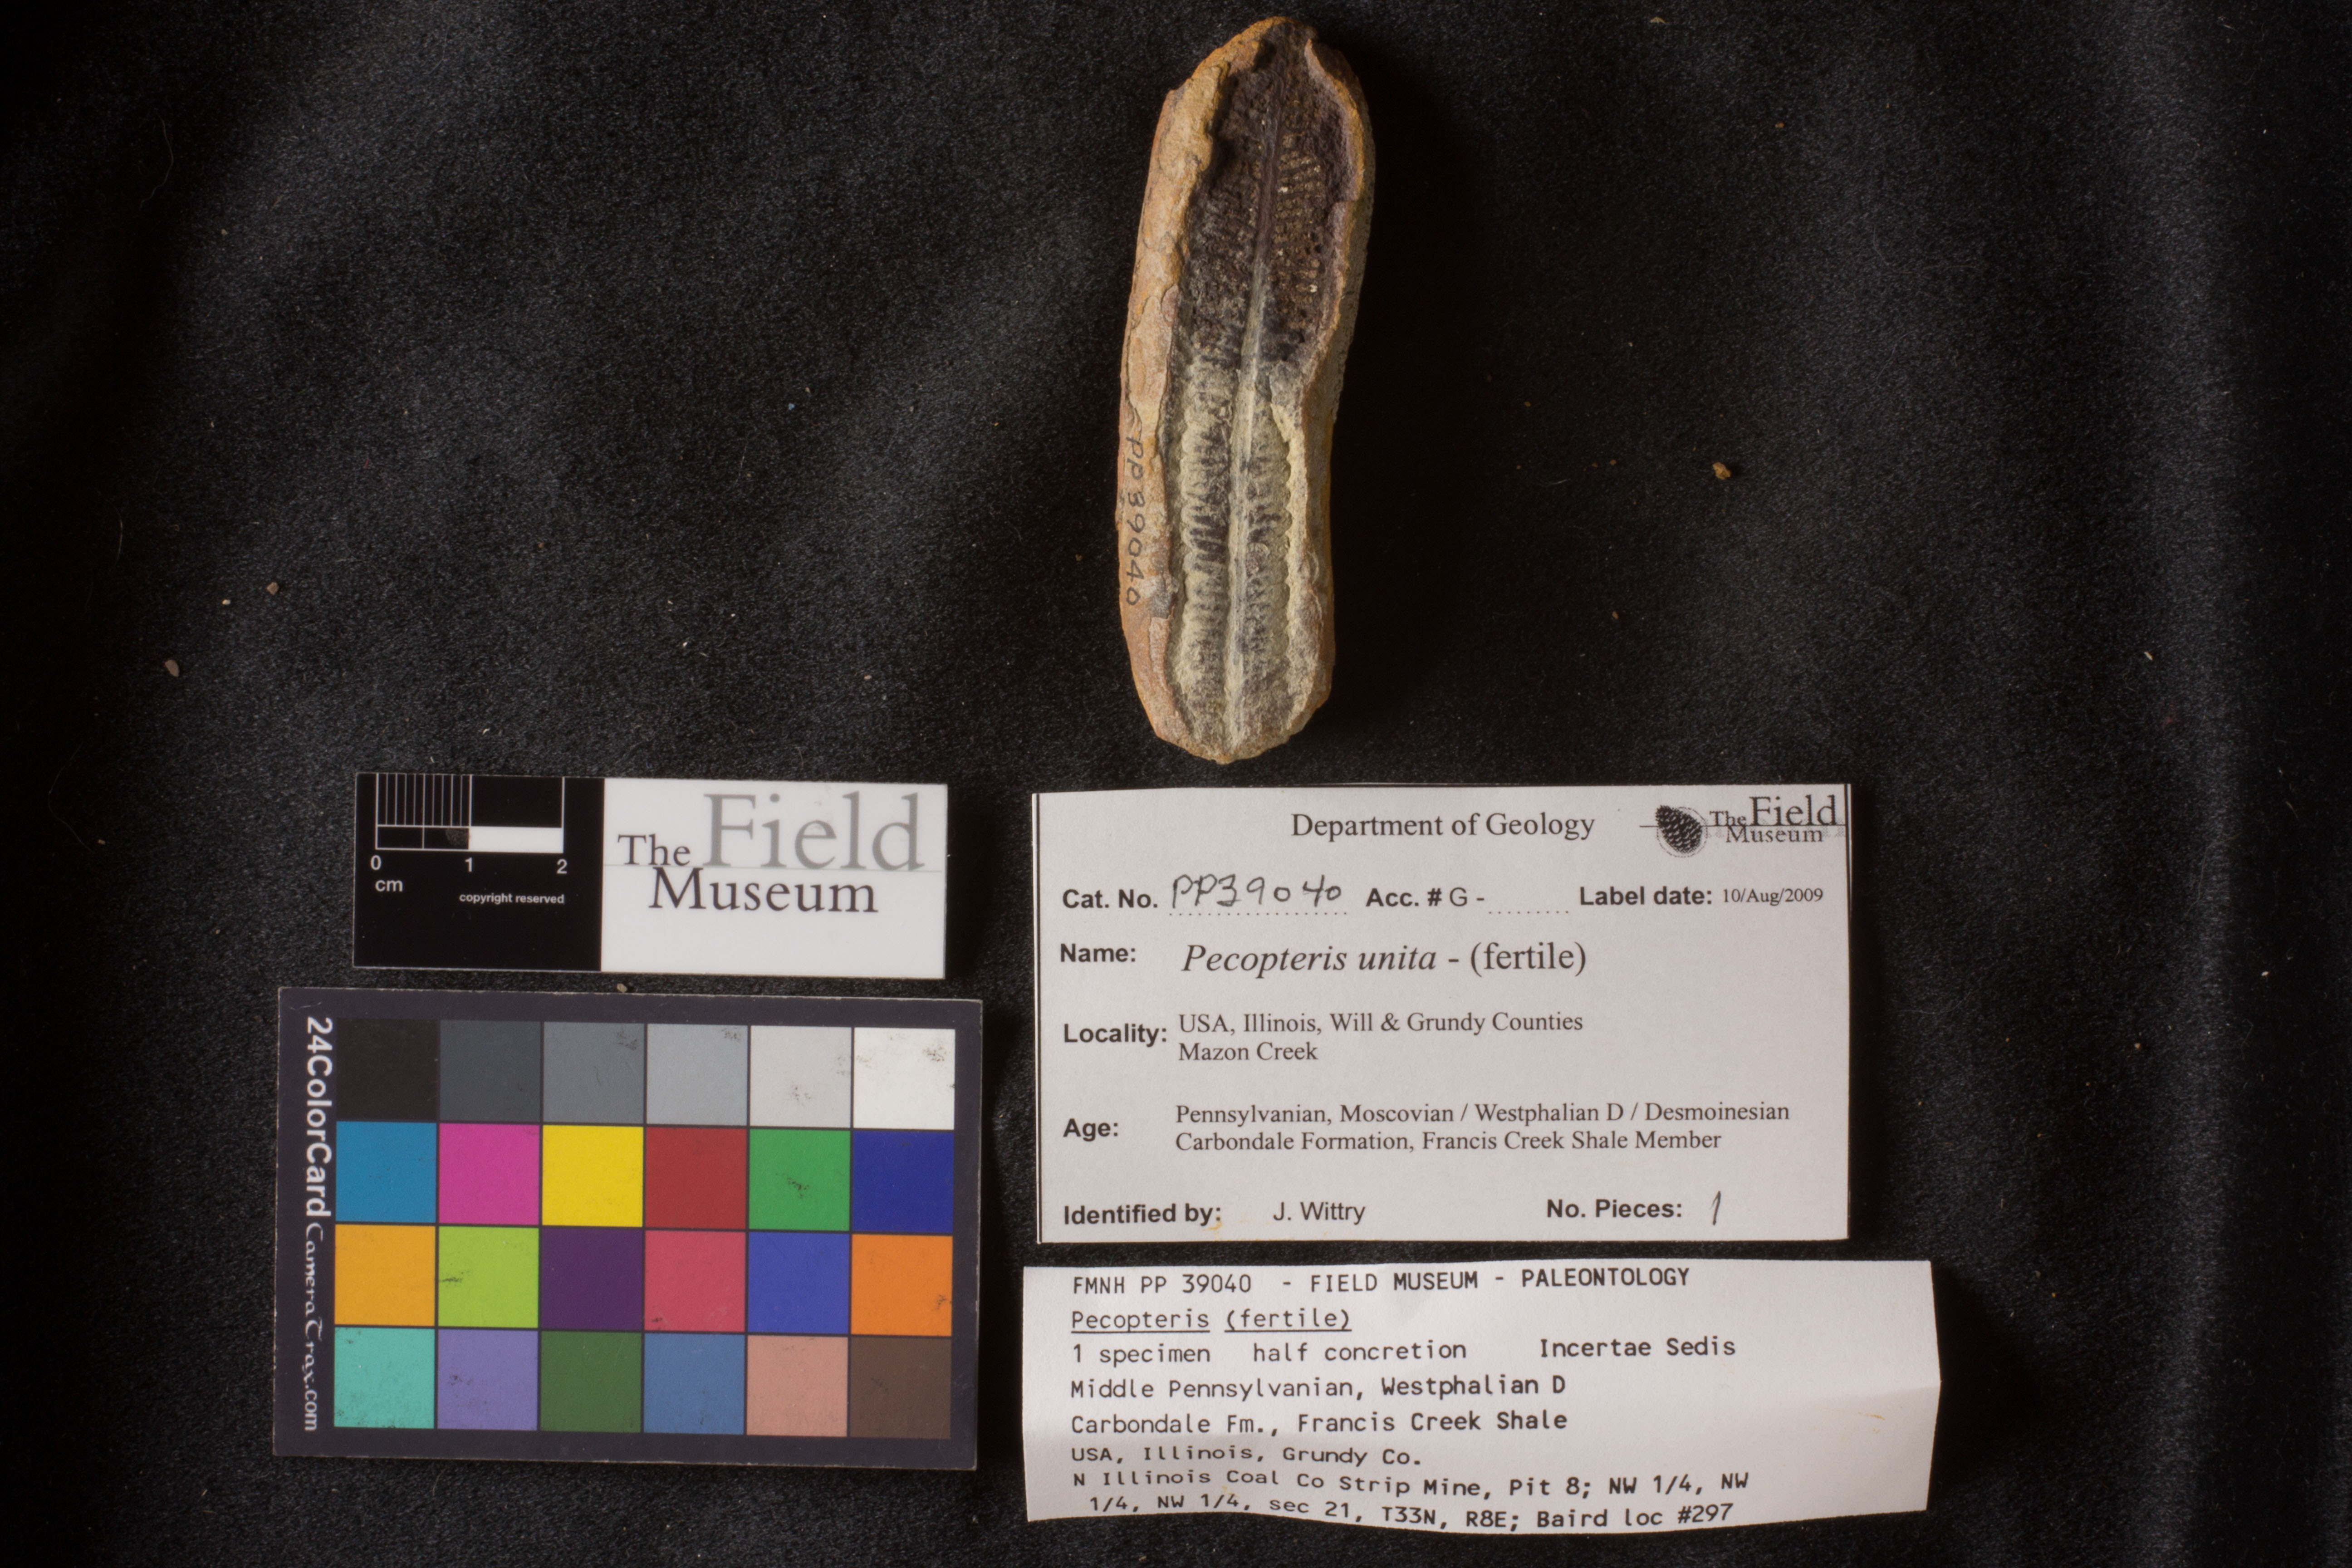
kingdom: Plantae
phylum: Tracheophyta
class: Polypodiopsida
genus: Diplazites
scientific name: Diplazites
